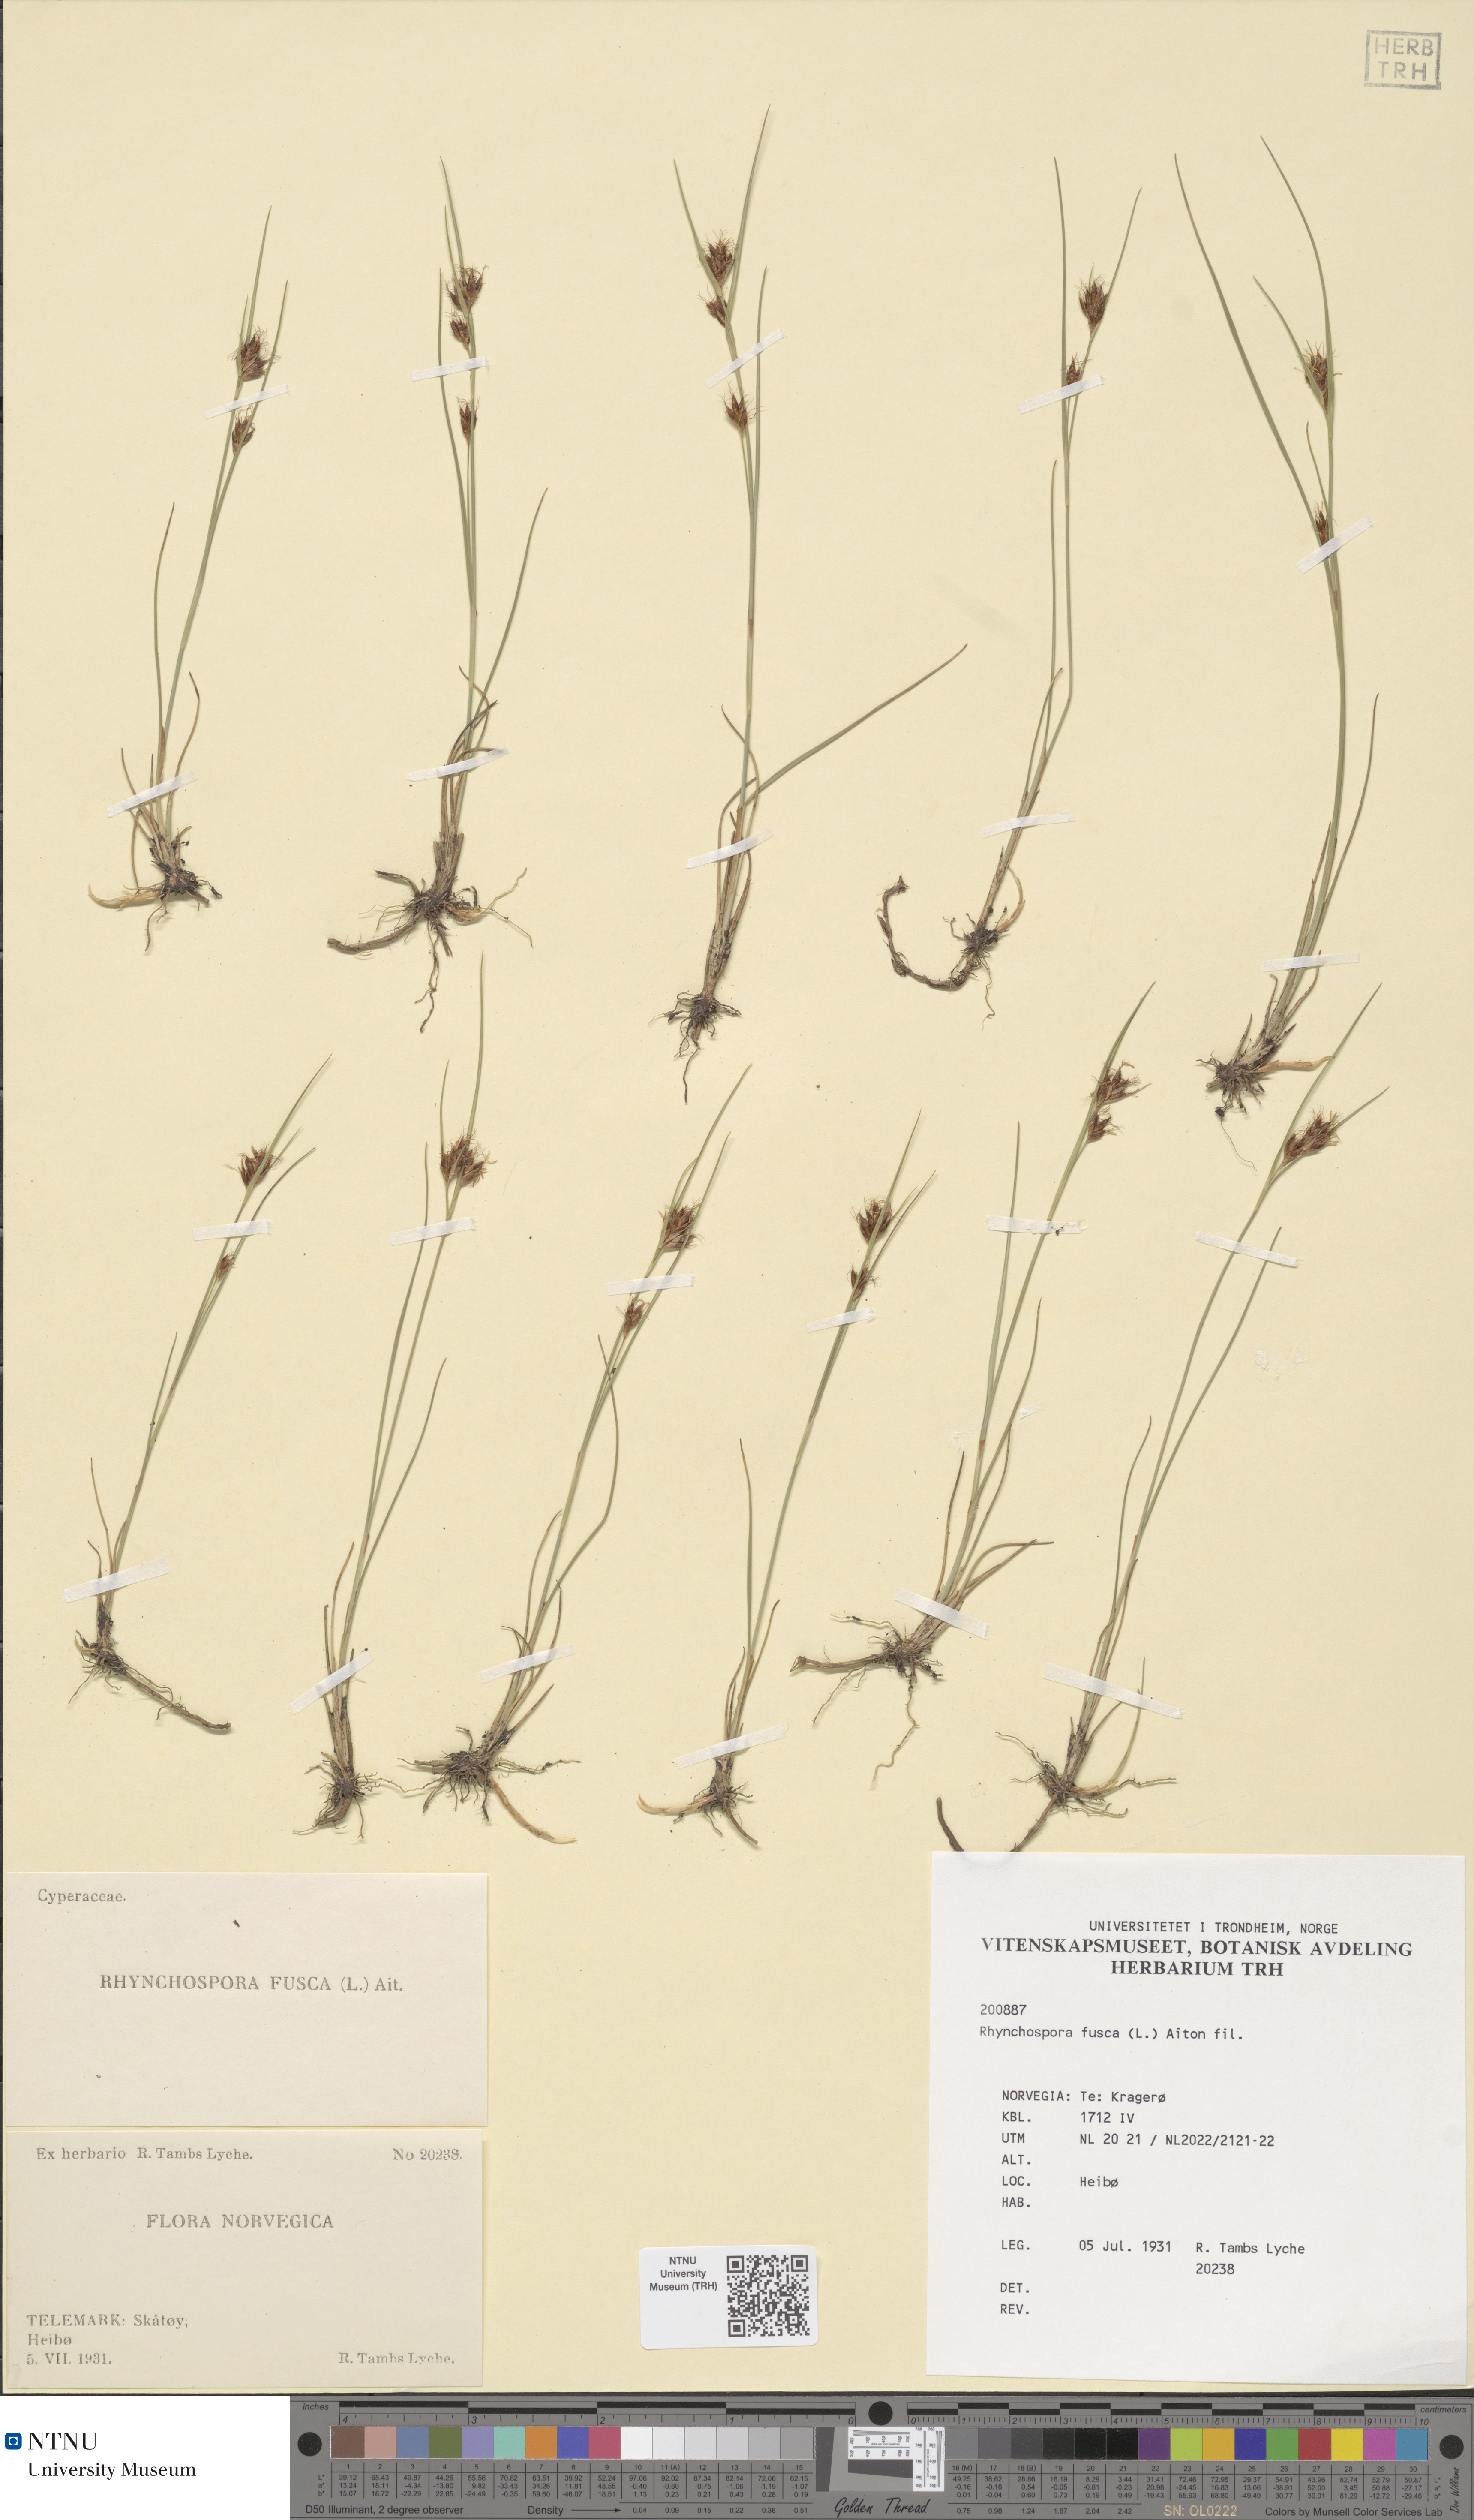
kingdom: Plantae
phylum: Tracheophyta
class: Liliopsida
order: Poales
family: Cyperaceae
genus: Rhynchospora
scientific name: Rhynchospora fusca
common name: Brown beak-sedge
